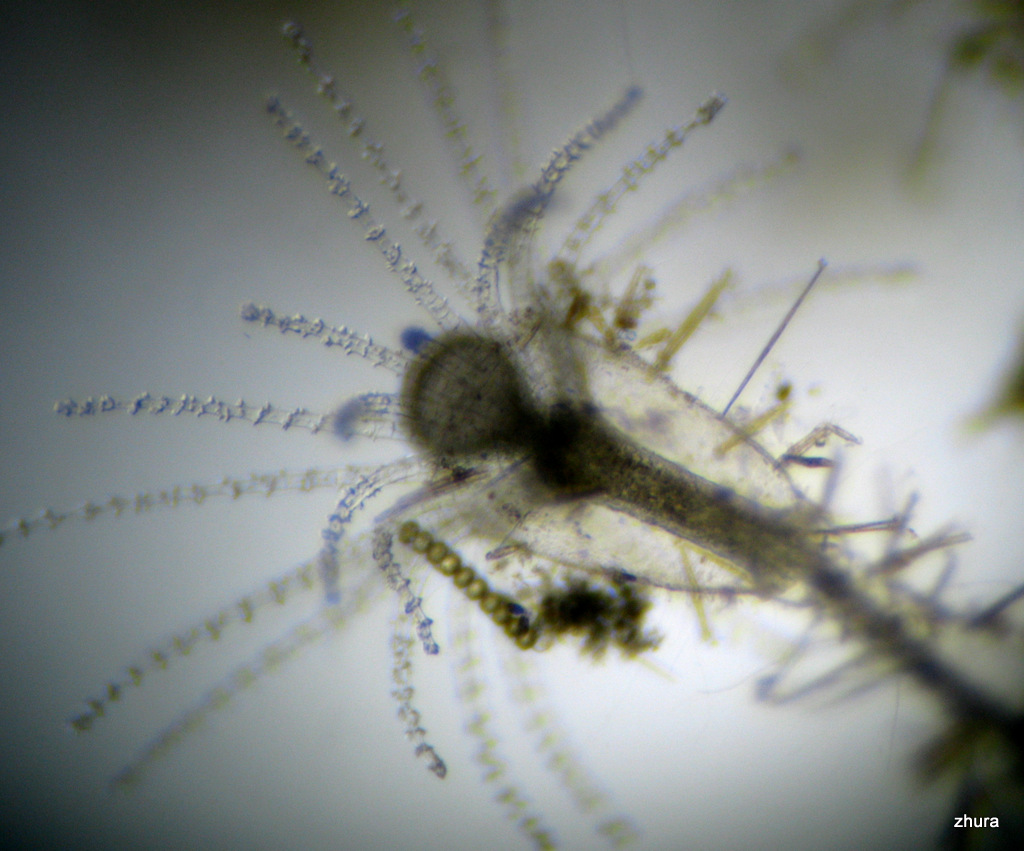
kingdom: Animalia
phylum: Cnidaria
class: Hydrozoa
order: Leptothecata
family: Campanulariidae
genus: Gonothyraea
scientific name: Gonothyraea loveni
